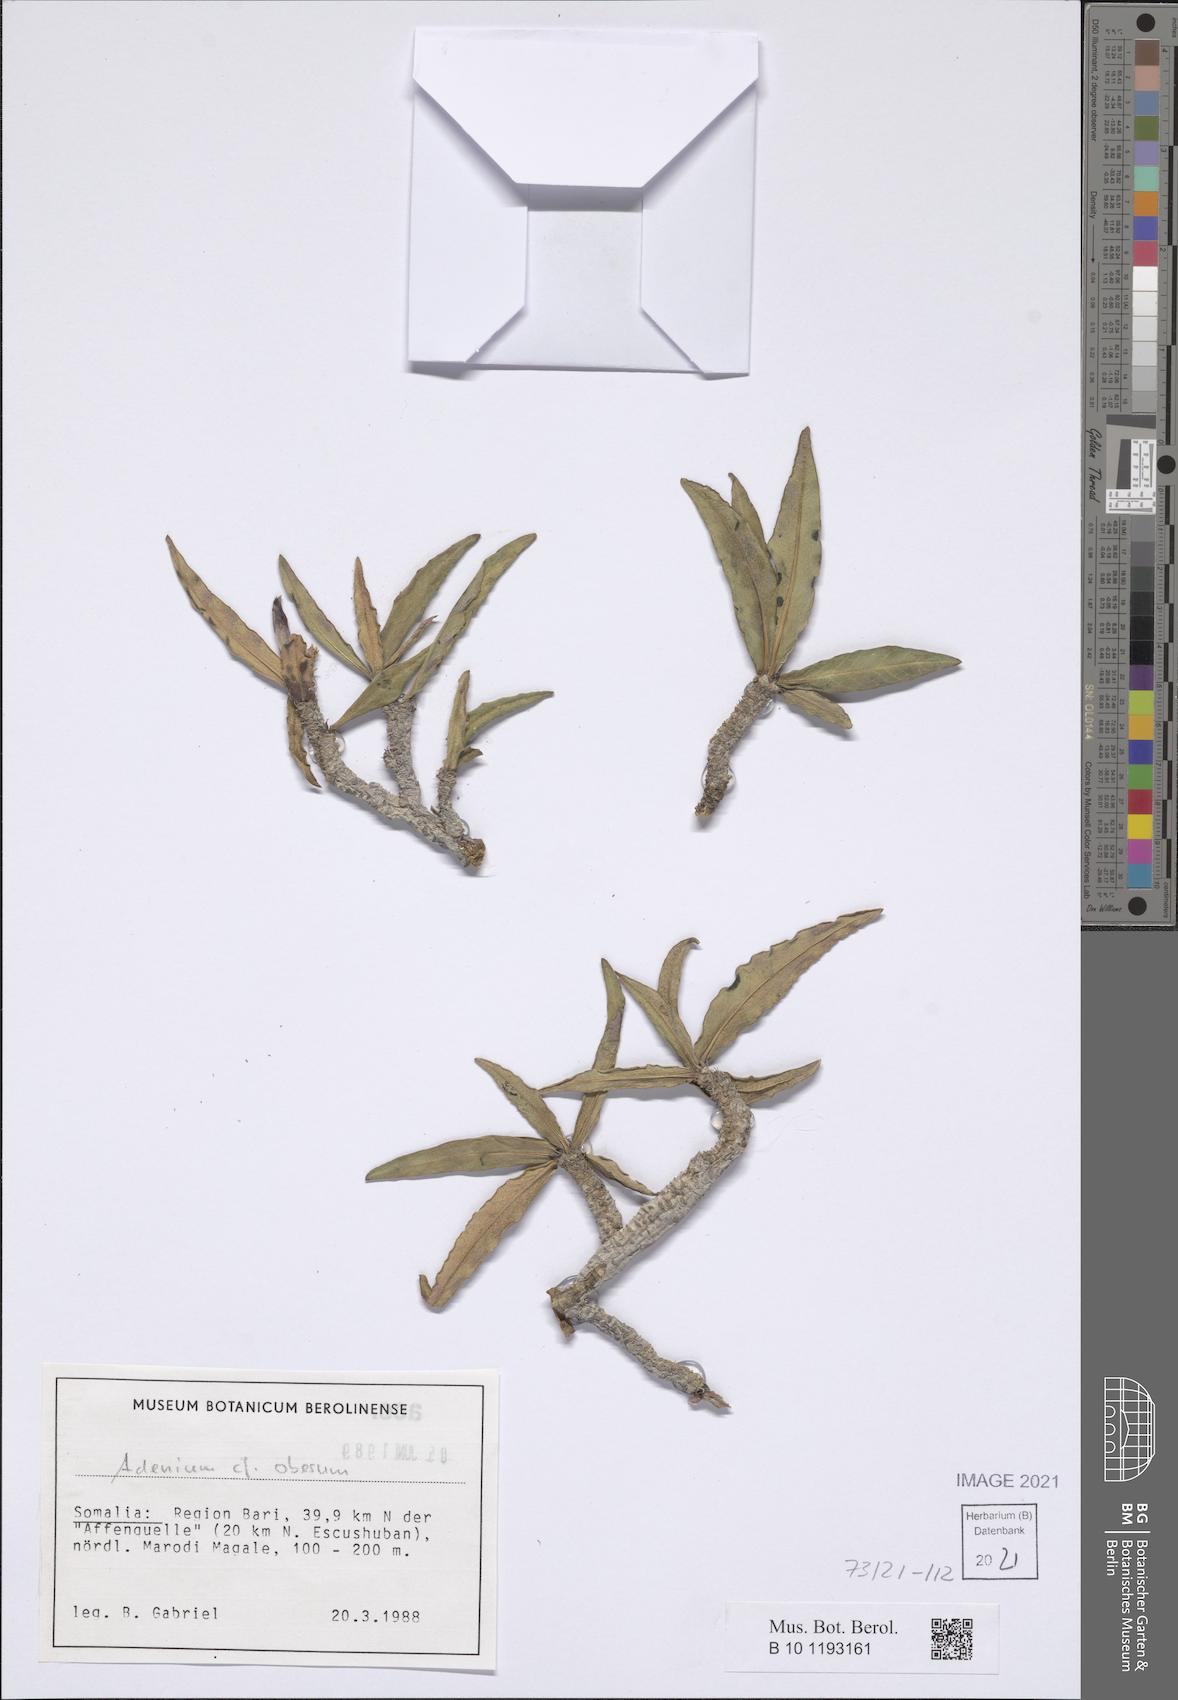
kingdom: Plantae
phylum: Tracheophyta
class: Magnoliopsida
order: Gentianales
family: Apocynaceae
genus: Adenium
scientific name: Adenium obesum
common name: Desert-rose
